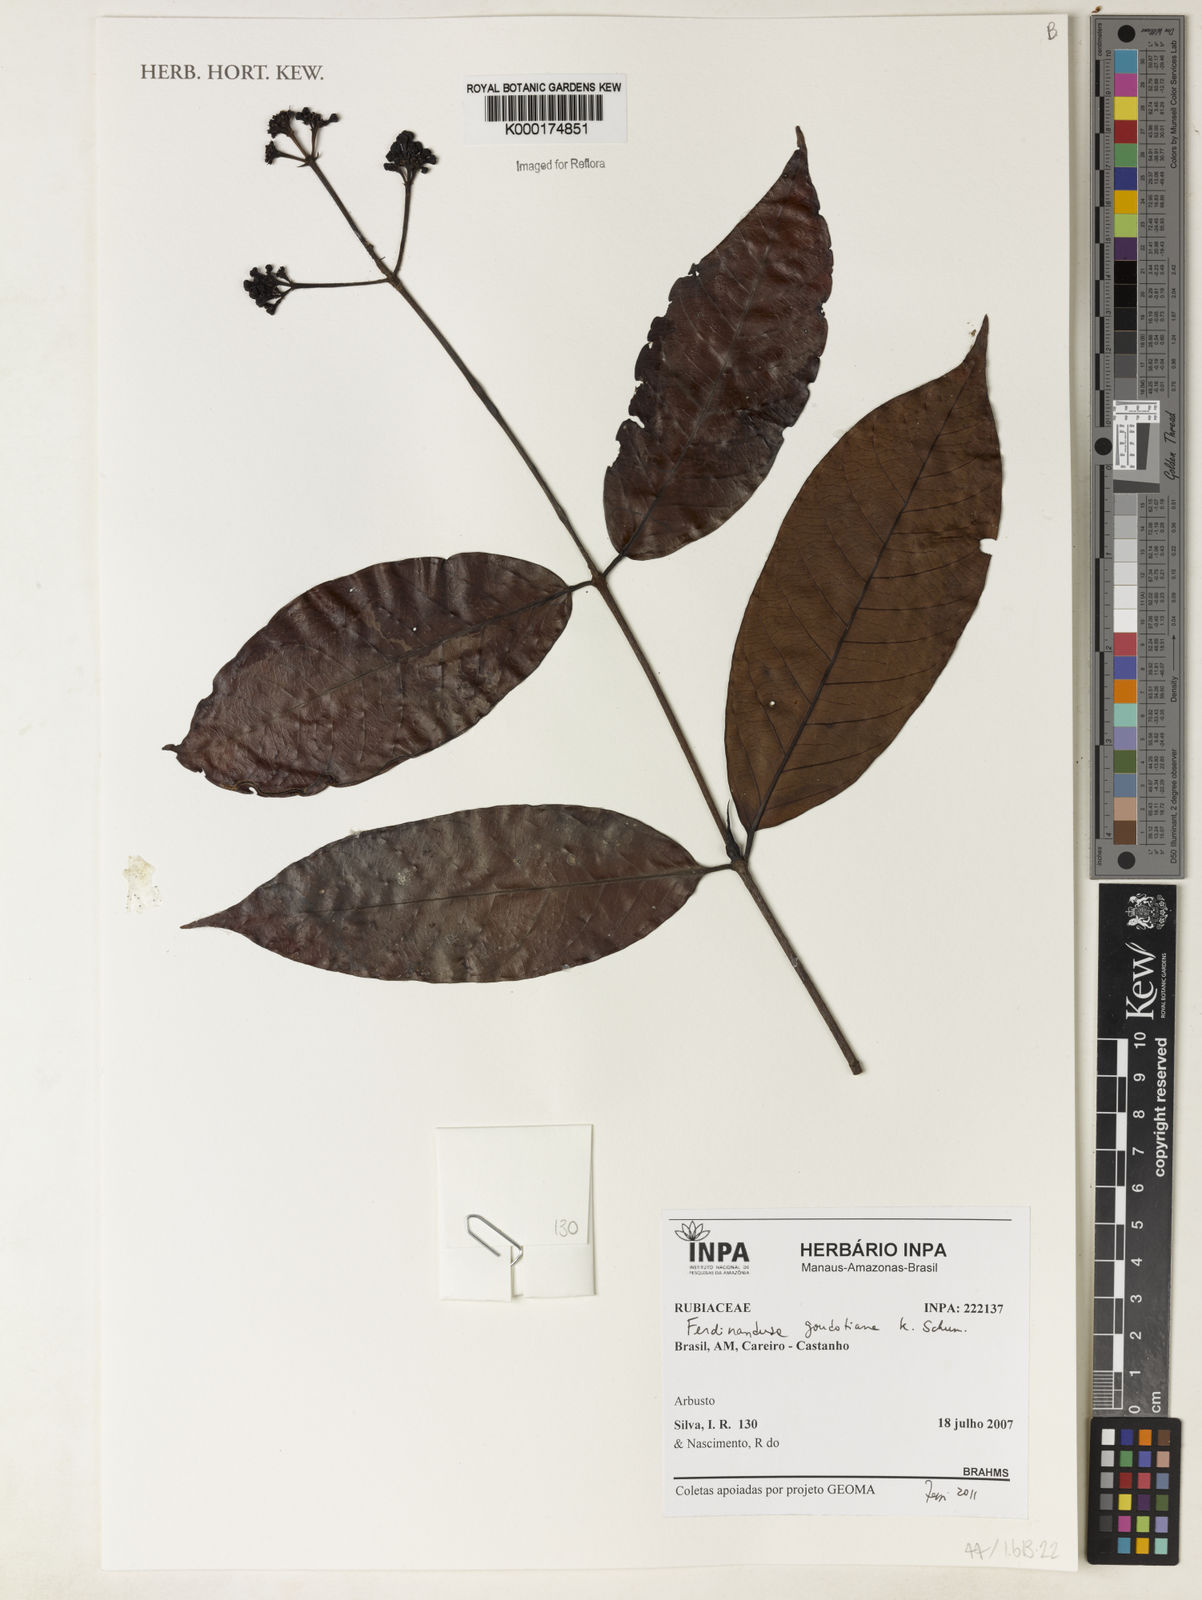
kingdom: Plantae
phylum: Tracheophyta
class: Magnoliopsida
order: Gentianales
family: Rubiaceae
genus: Ferdinandusa
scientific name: Ferdinandusa goudotiana
